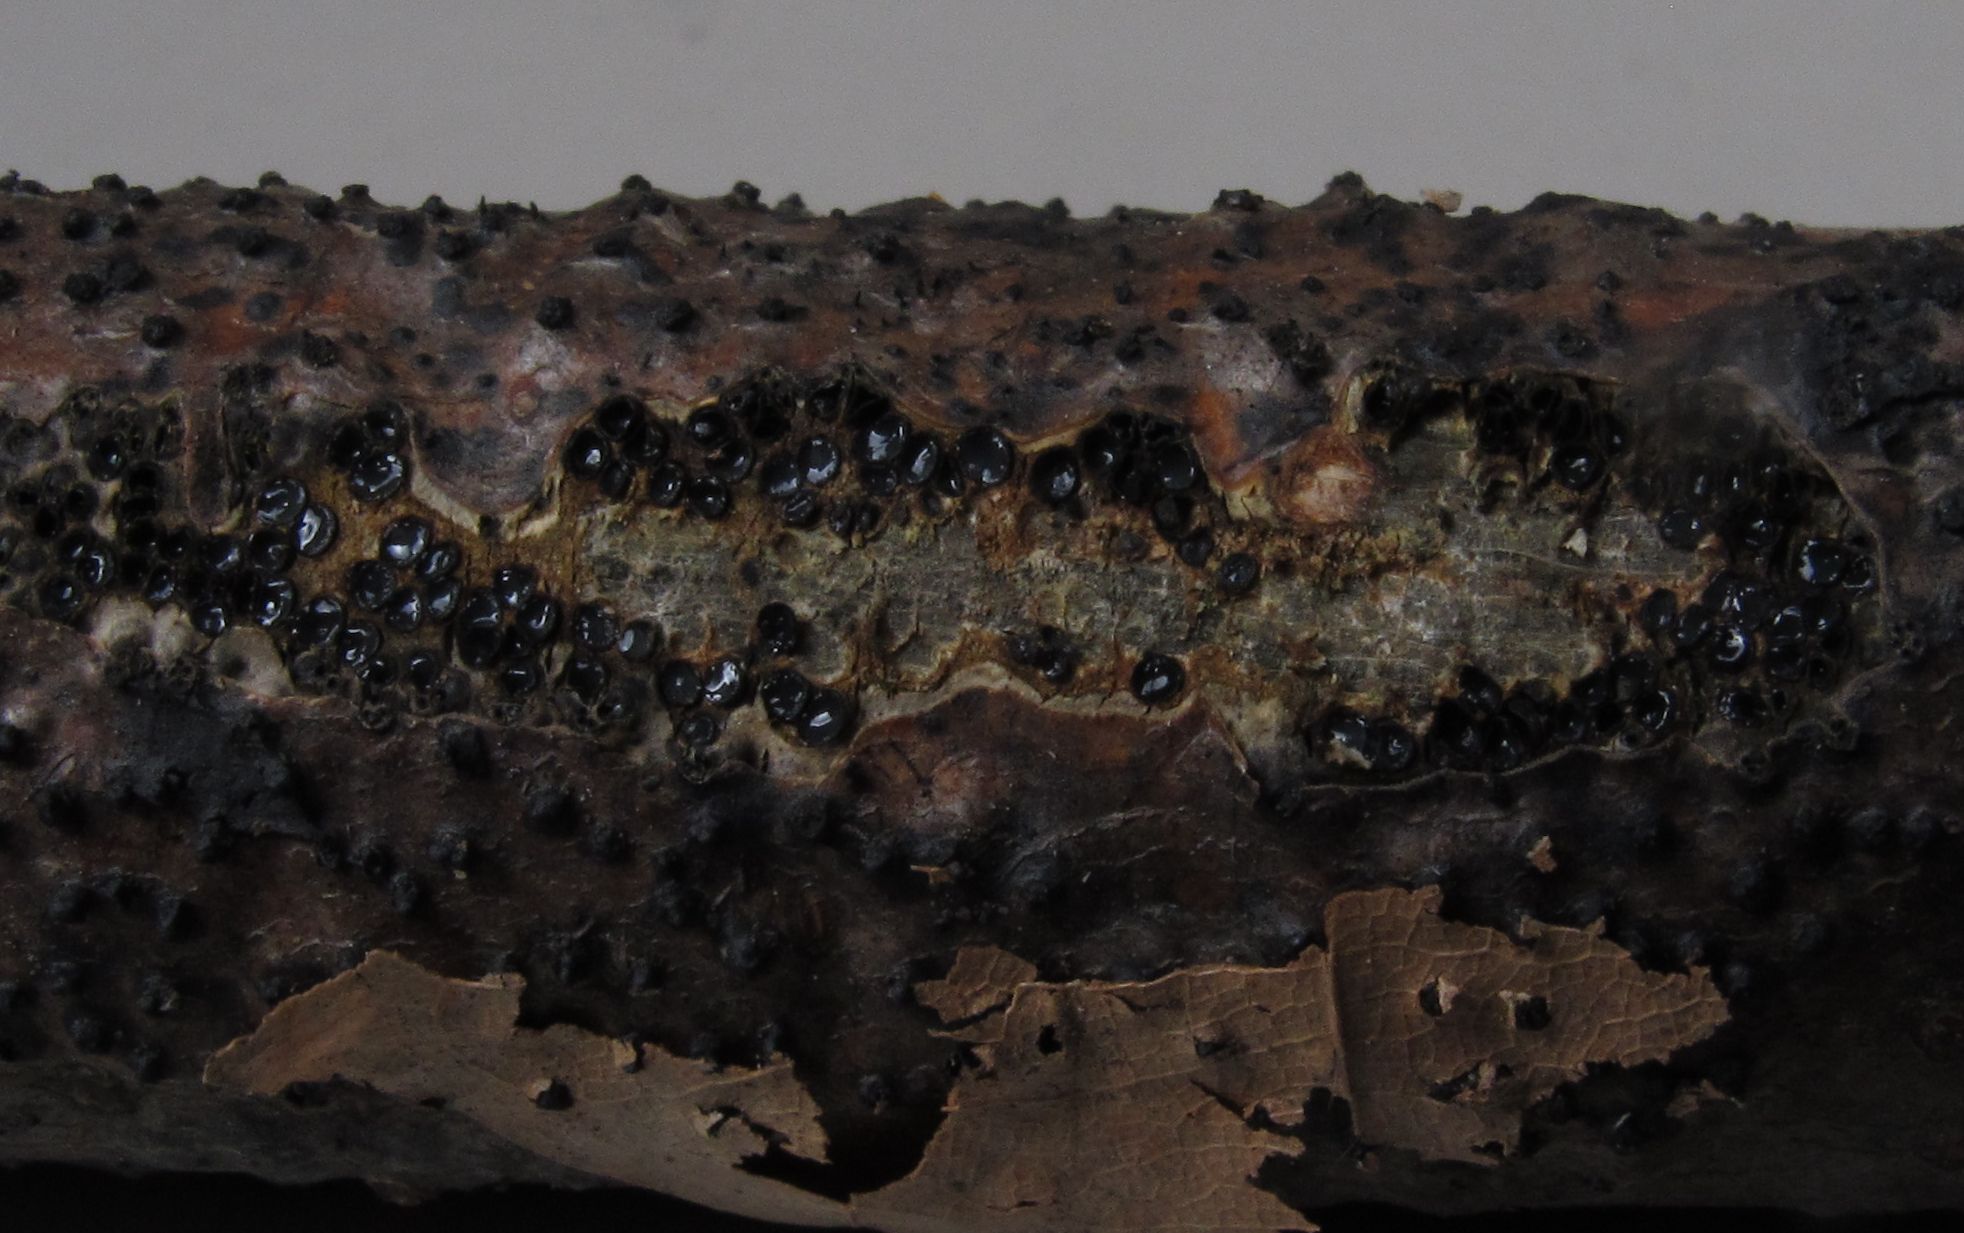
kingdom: Fungi
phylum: Ascomycota
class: Sordariomycetes
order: Xylariales
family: Diatrypaceae
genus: Eutypella
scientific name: Eutypella quaternata
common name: bøge-korsprik
